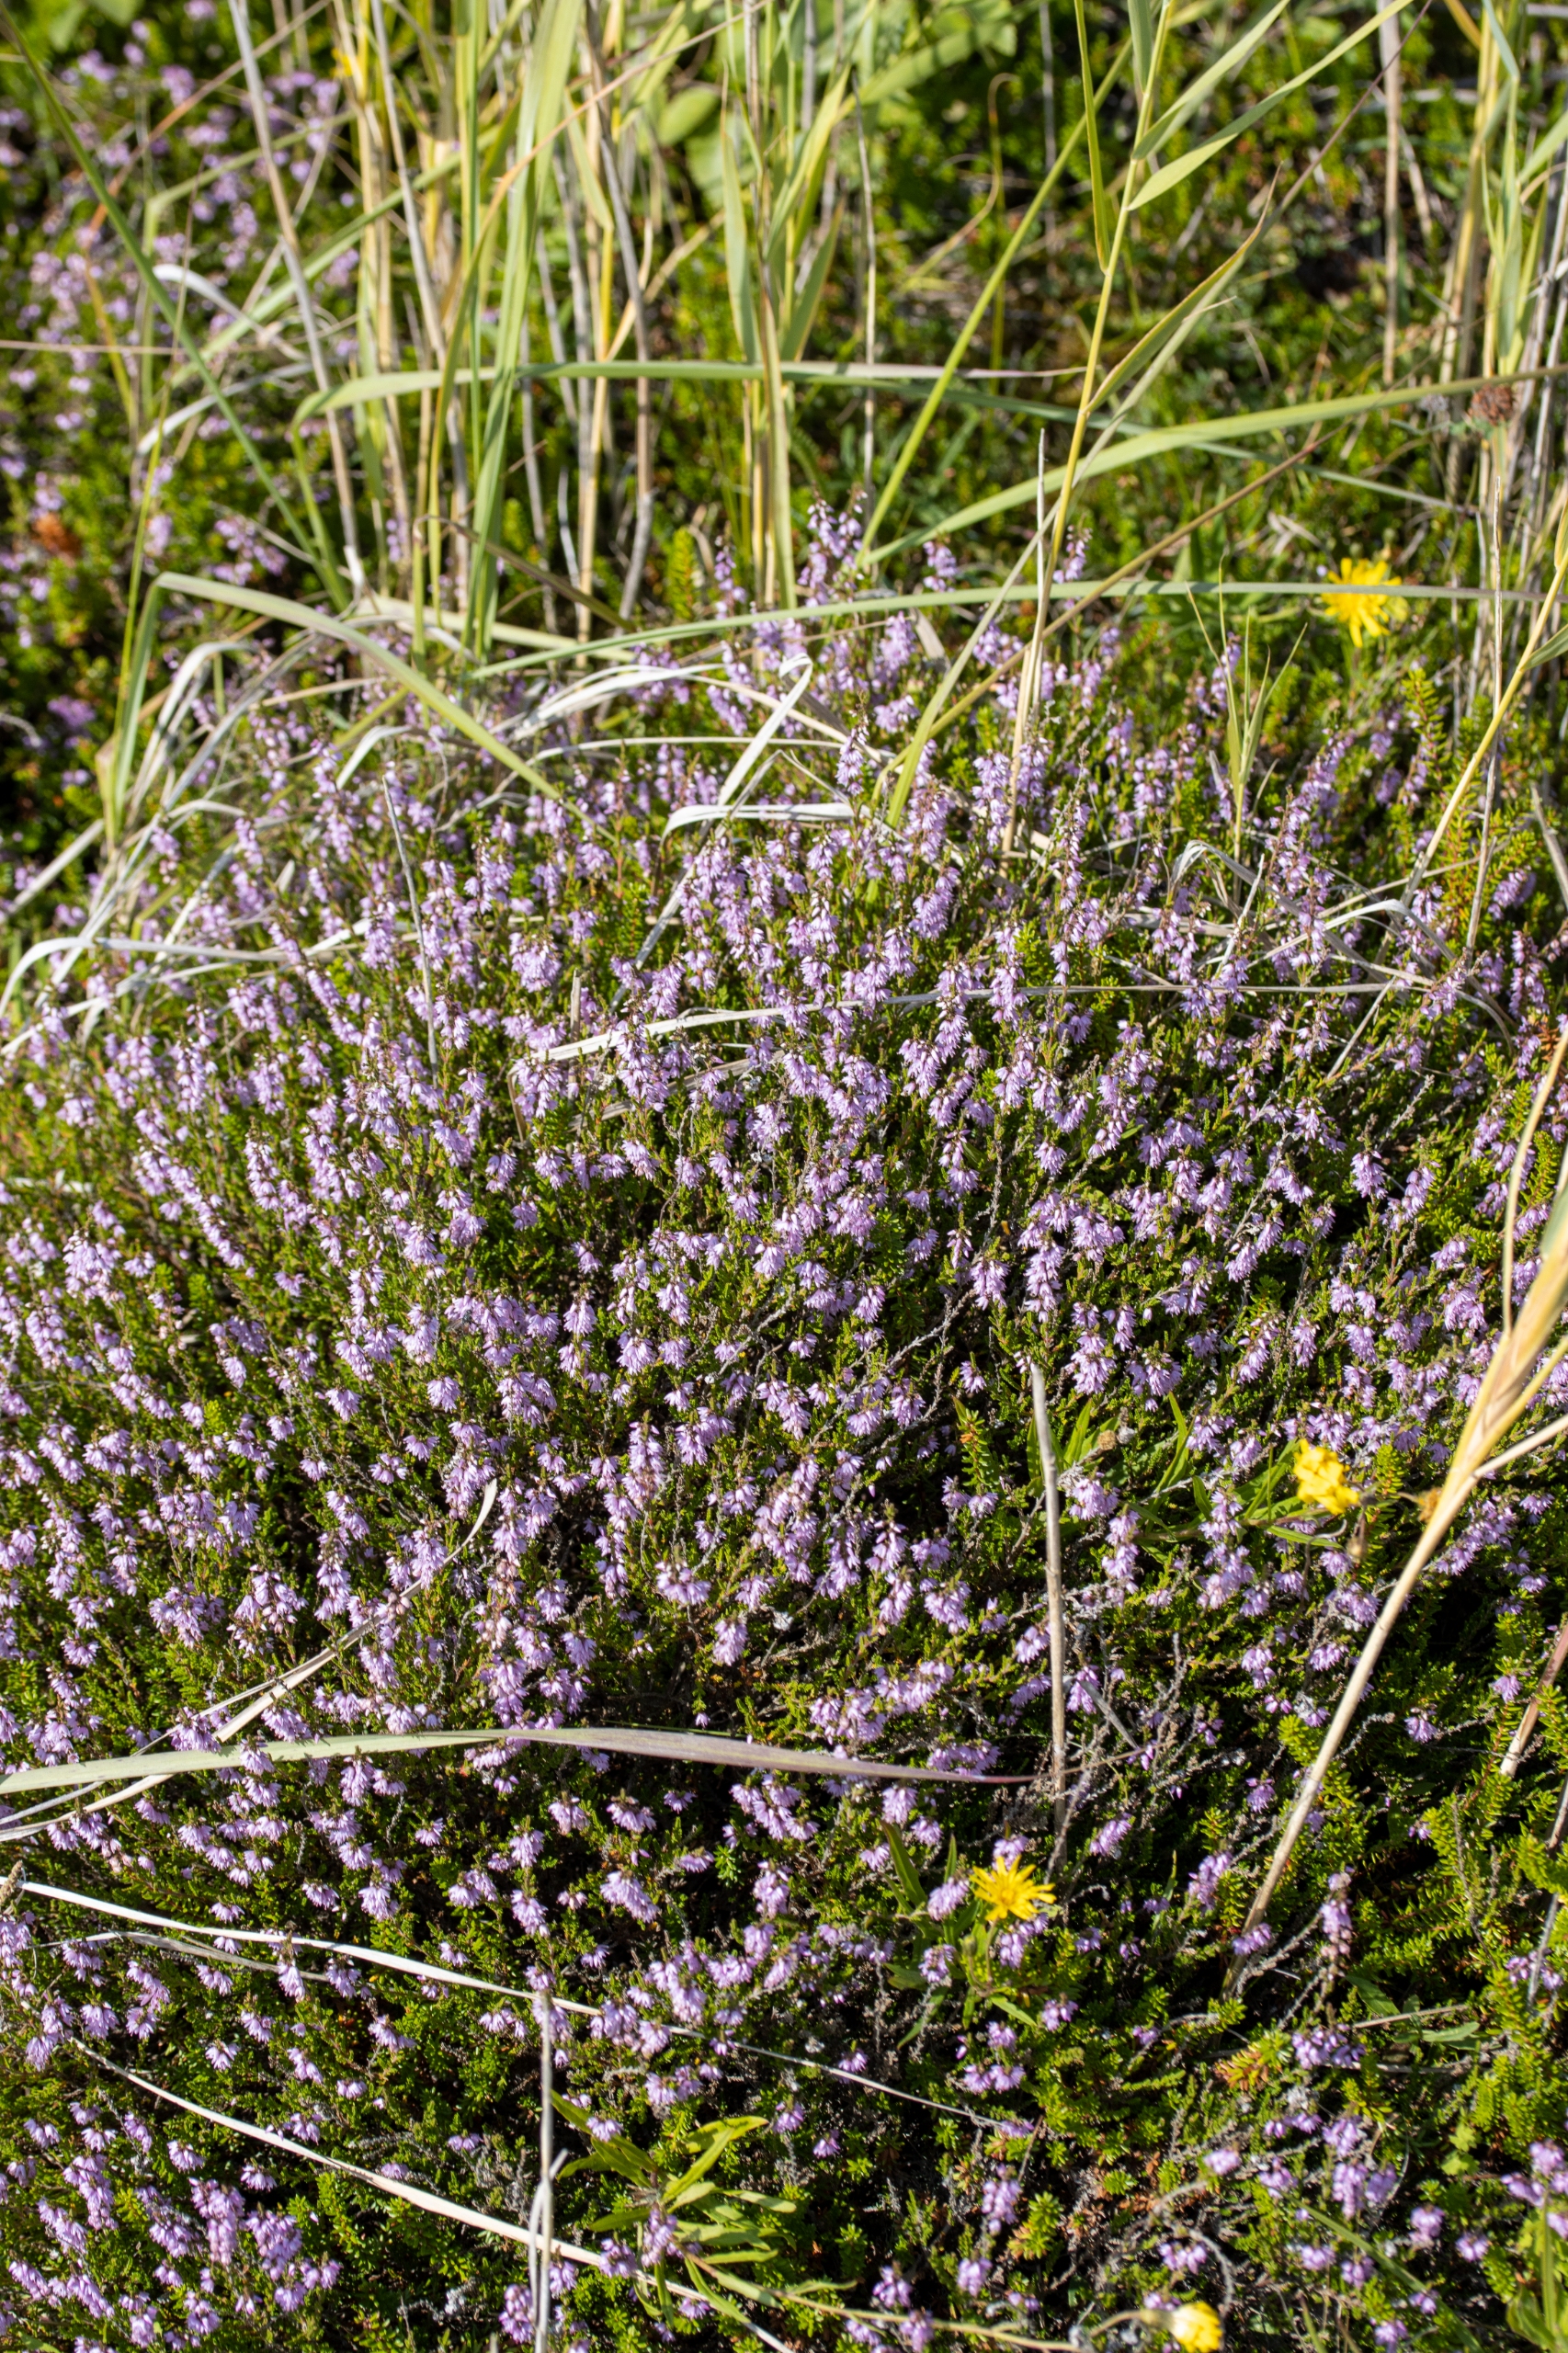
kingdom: Plantae
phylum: Tracheophyta
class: Magnoliopsida
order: Ericales
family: Ericaceae
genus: Calluna
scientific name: Calluna vulgaris
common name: Hedelyng
